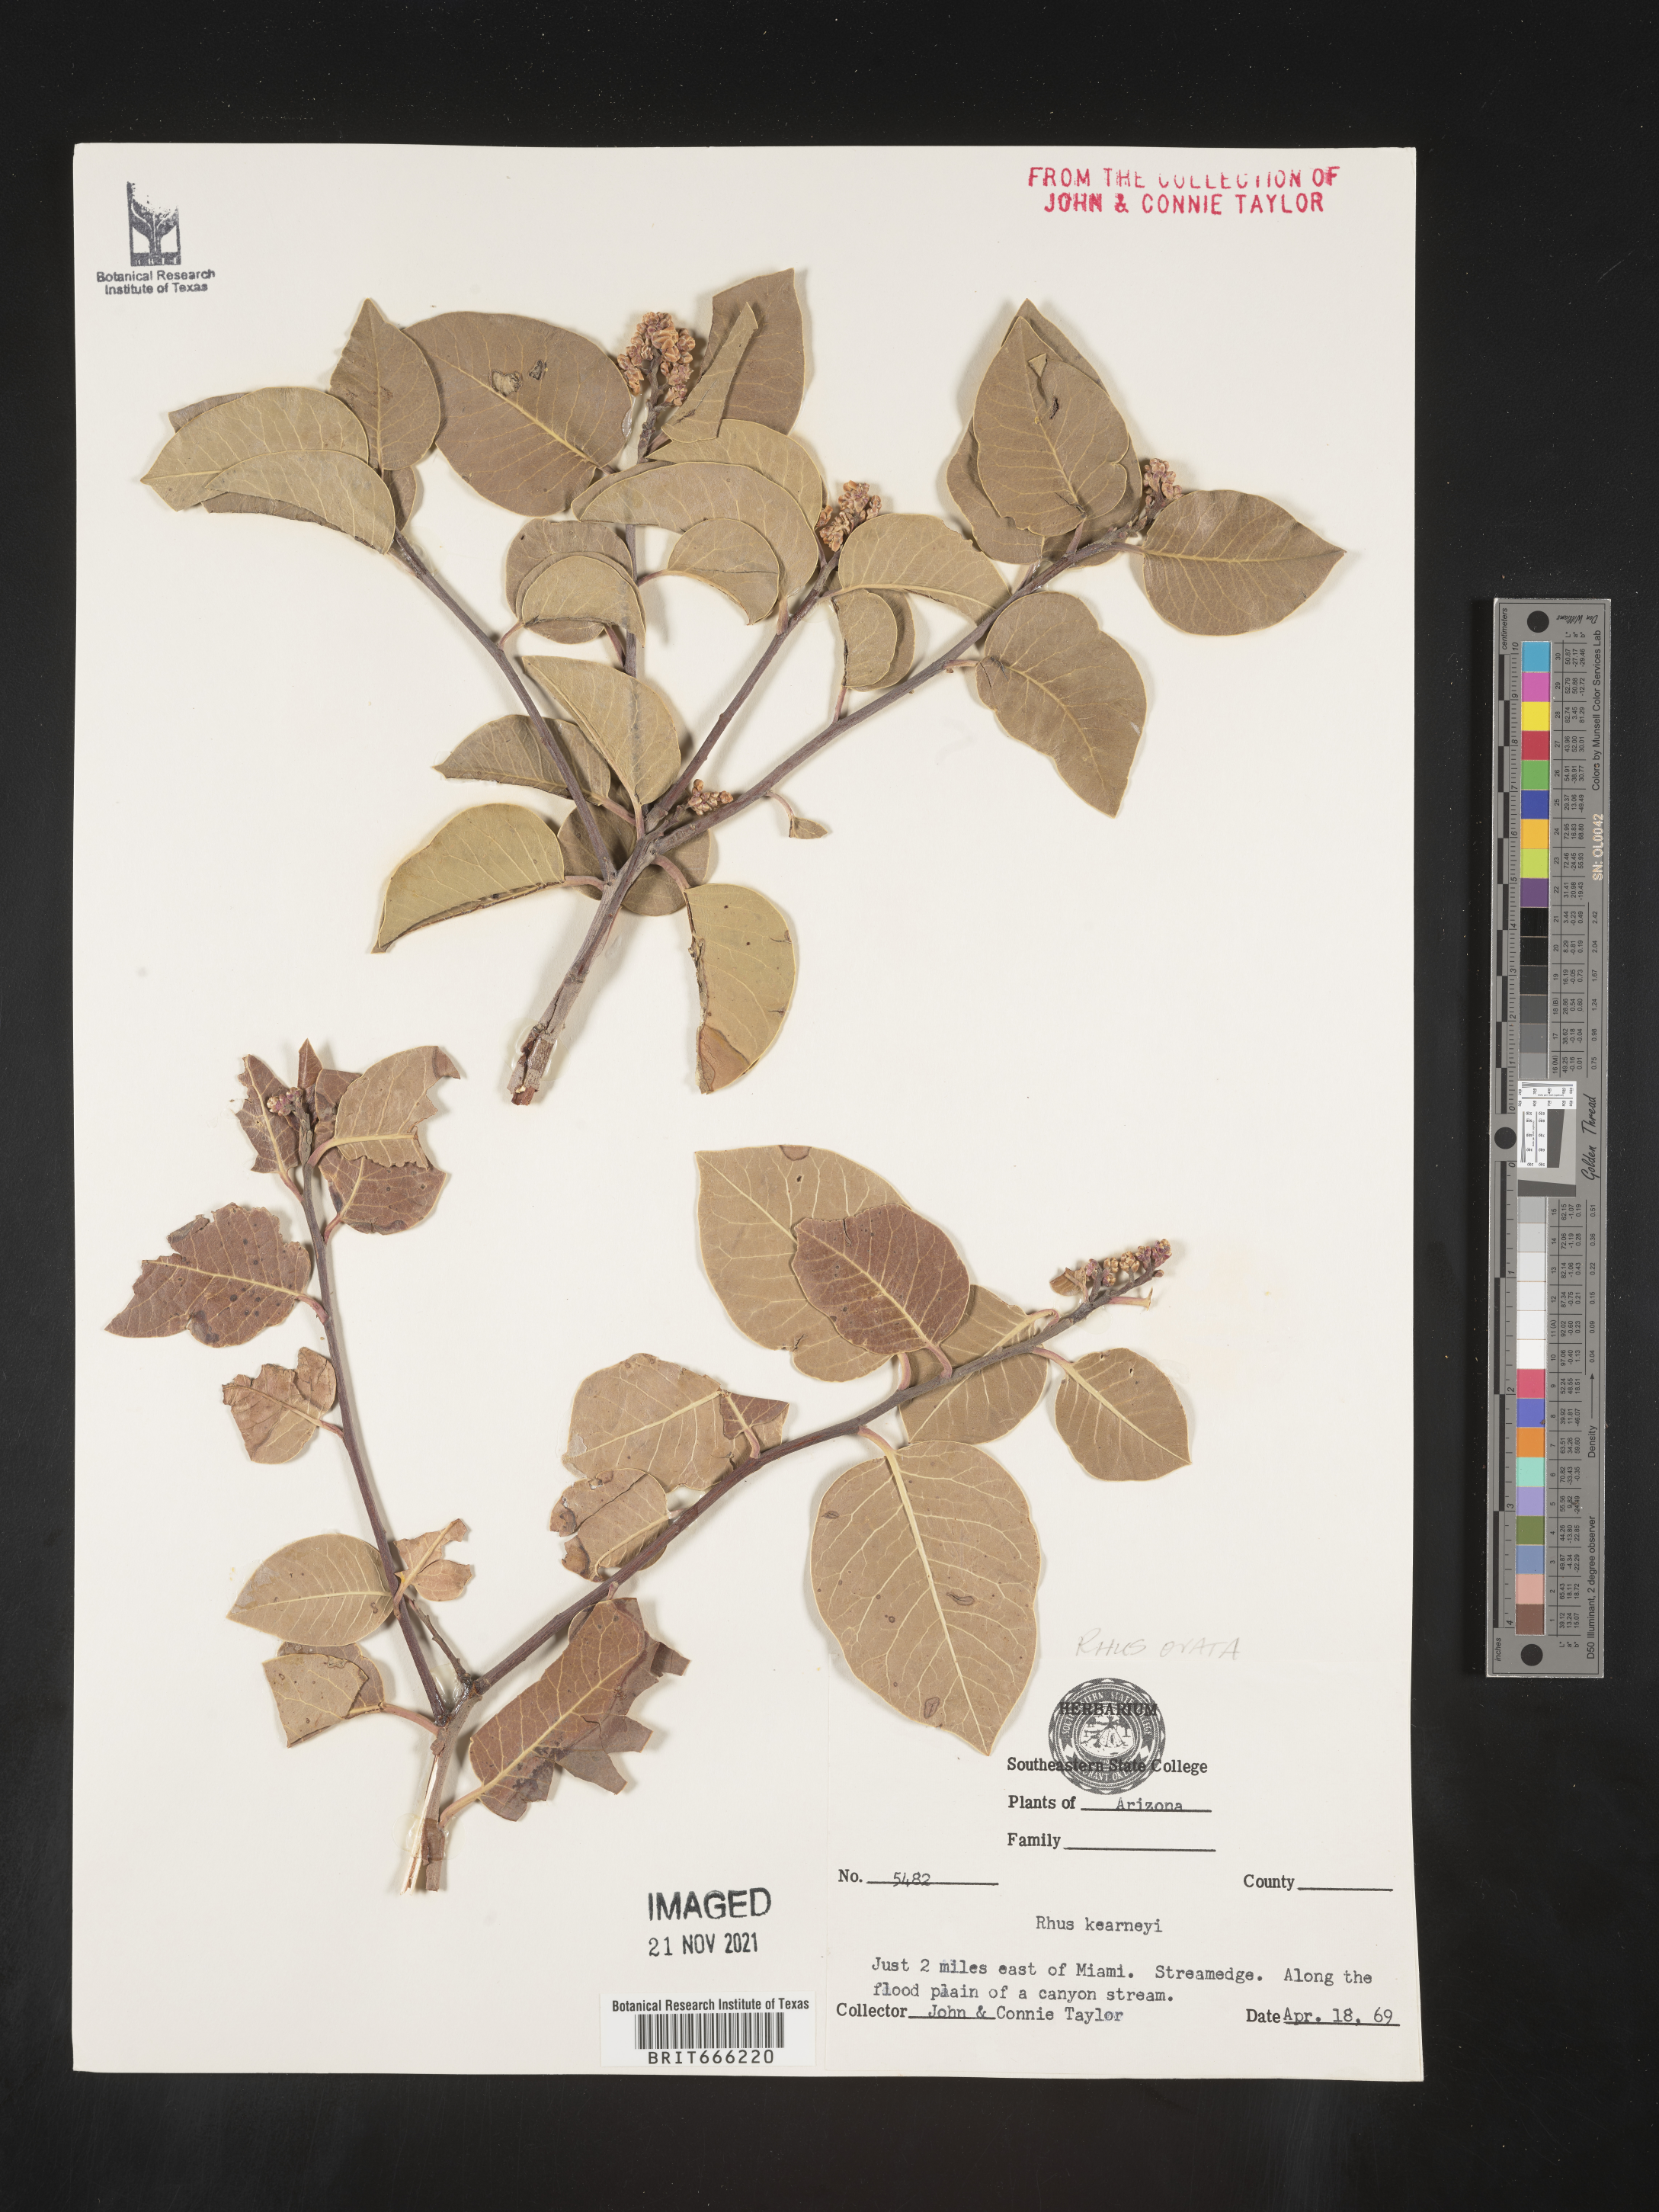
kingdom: Plantae
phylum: Tracheophyta
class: Magnoliopsida
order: Sapindales
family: Anacardiaceae
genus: Rhus
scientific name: Rhus
